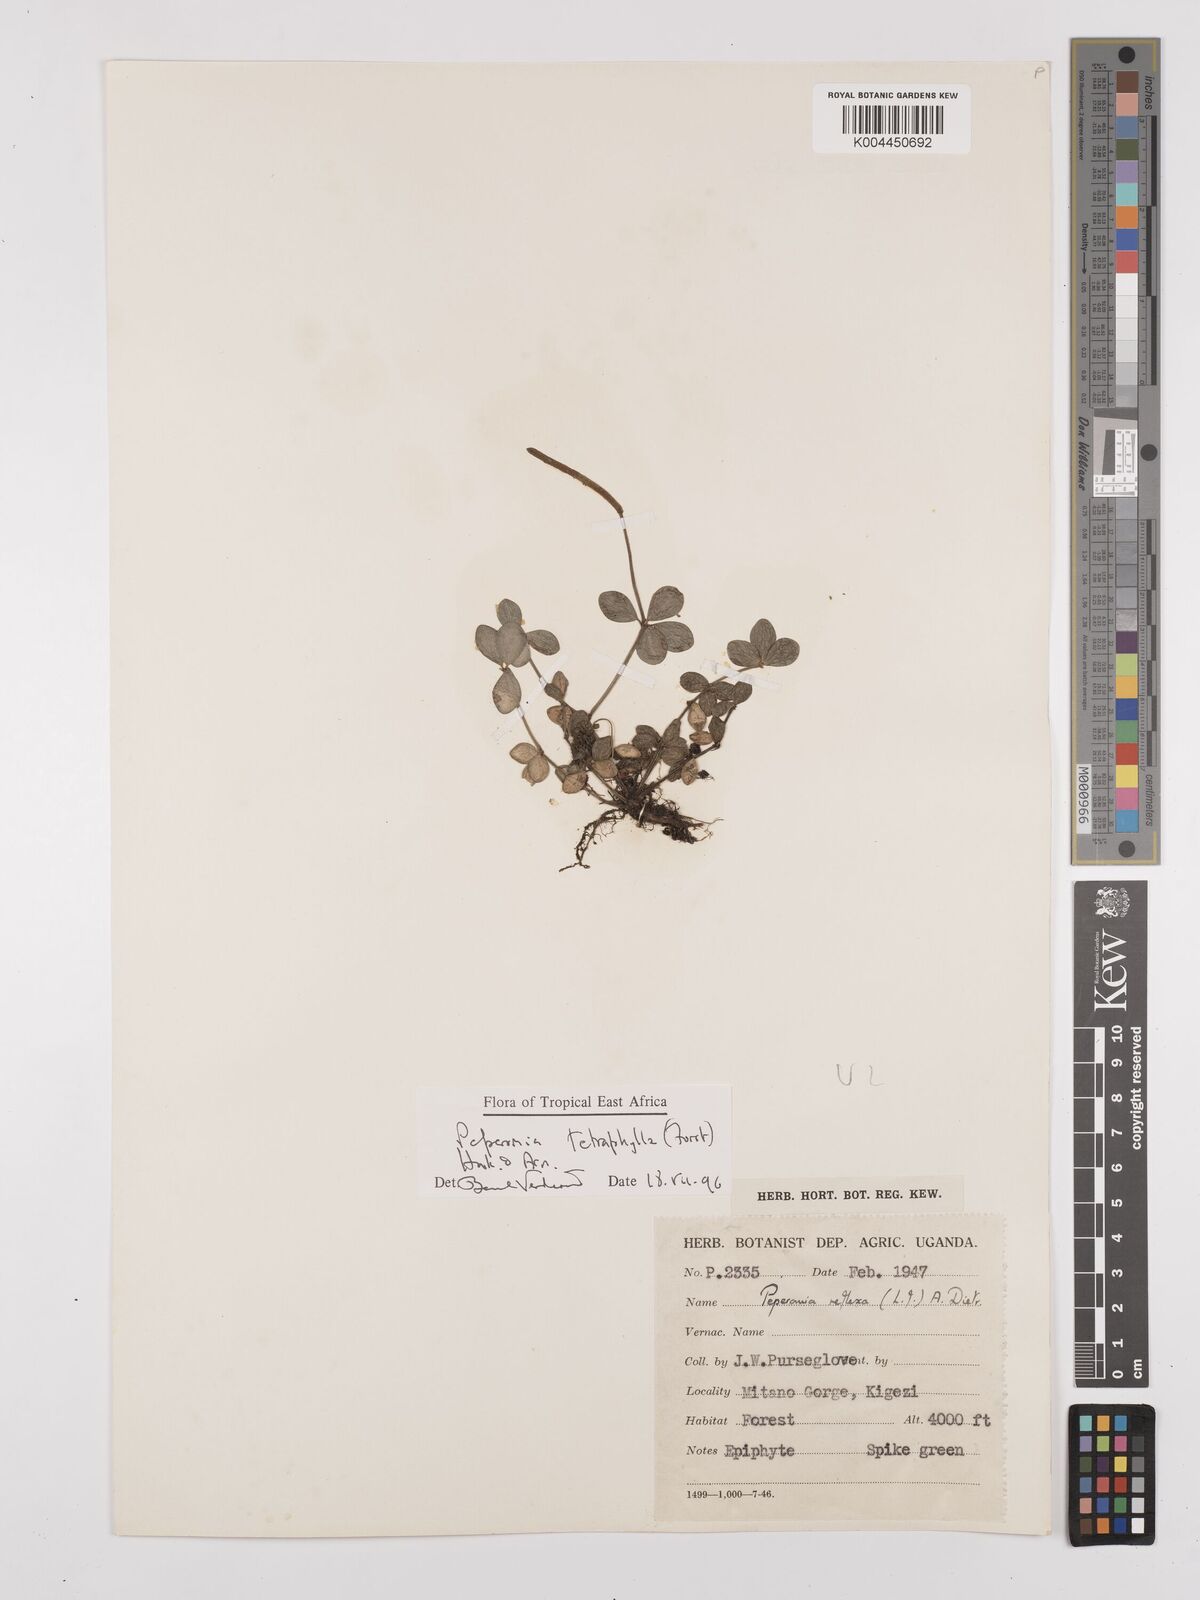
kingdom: Plantae
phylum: Tracheophyta
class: Magnoliopsida
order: Piperales
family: Piperaceae
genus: Peperomia
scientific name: Peperomia tetraphylla
